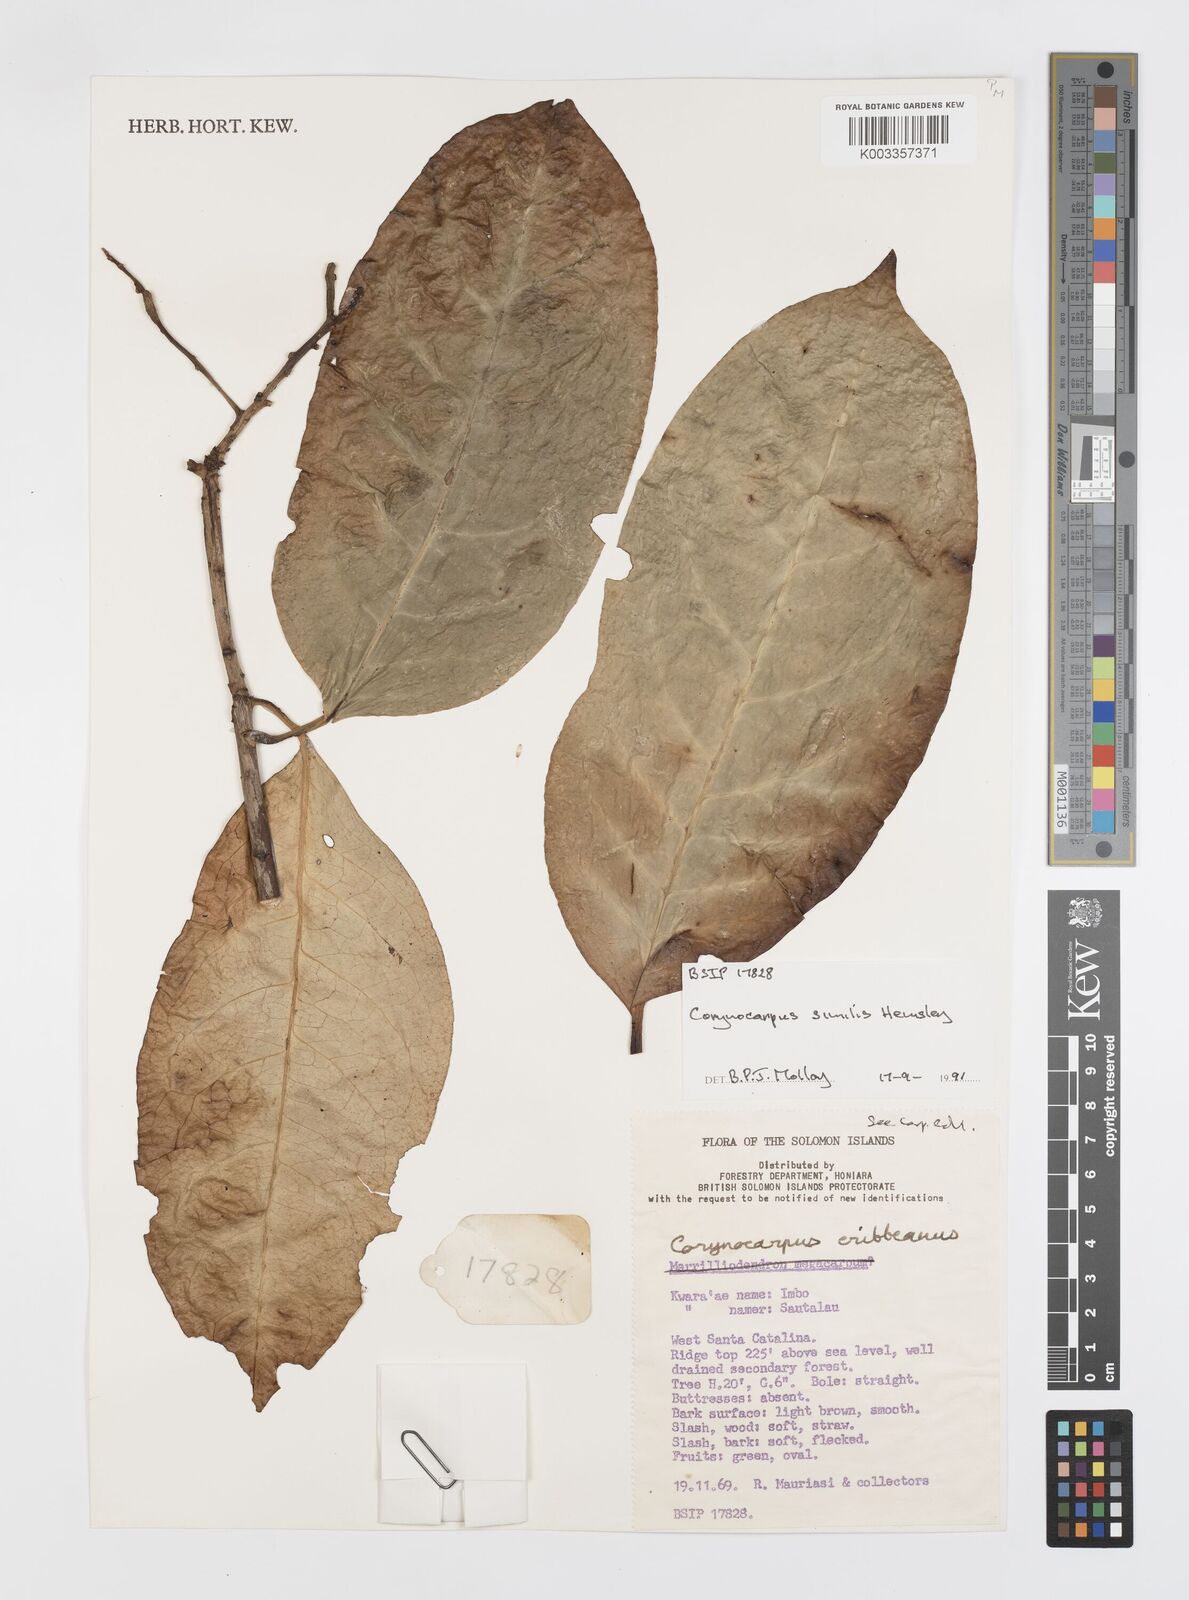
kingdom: Plantae
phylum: Tracheophyta
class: Magnoliopsida
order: Cucurbitales
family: Corynocarpaceae
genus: Corynocarpus
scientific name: Corynocarpus similis
